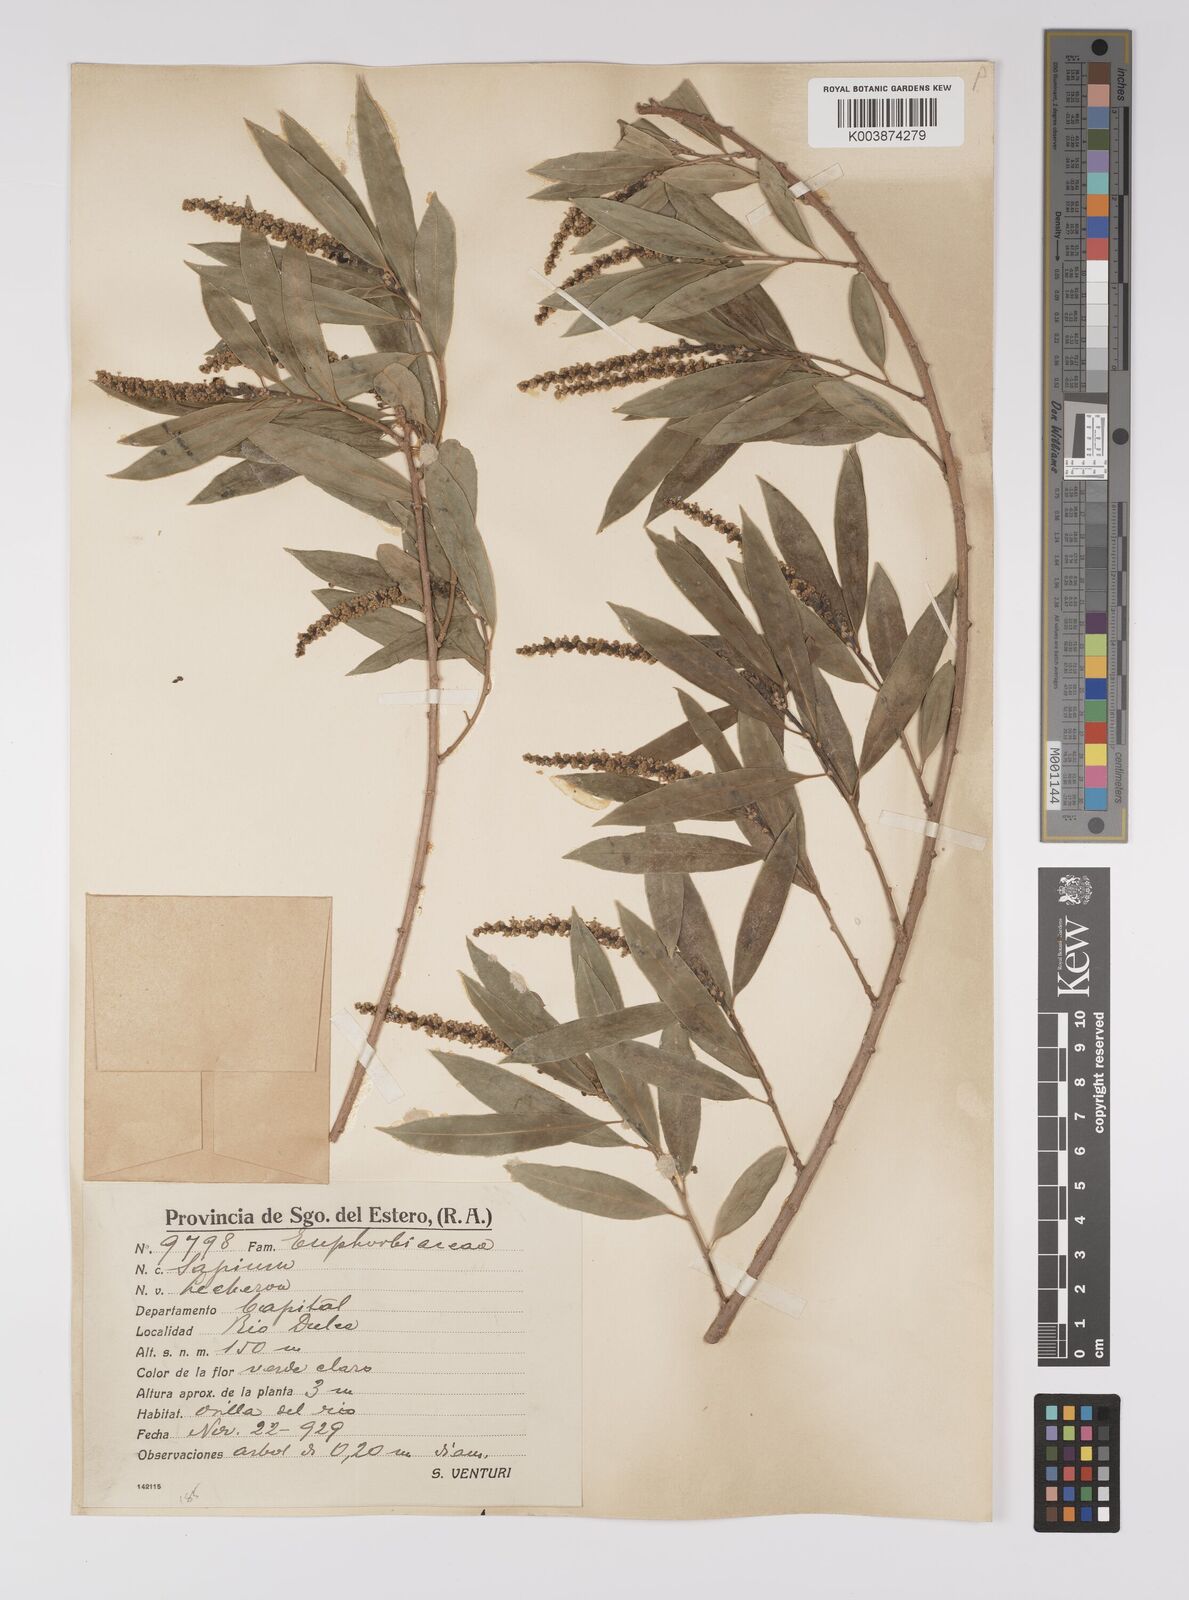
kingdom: Plantae
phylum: Tracheophyta
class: Magnoliopsida
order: Malpighiales
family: Euphorbiaceae
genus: Sapium
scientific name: Sapium haematospermum
